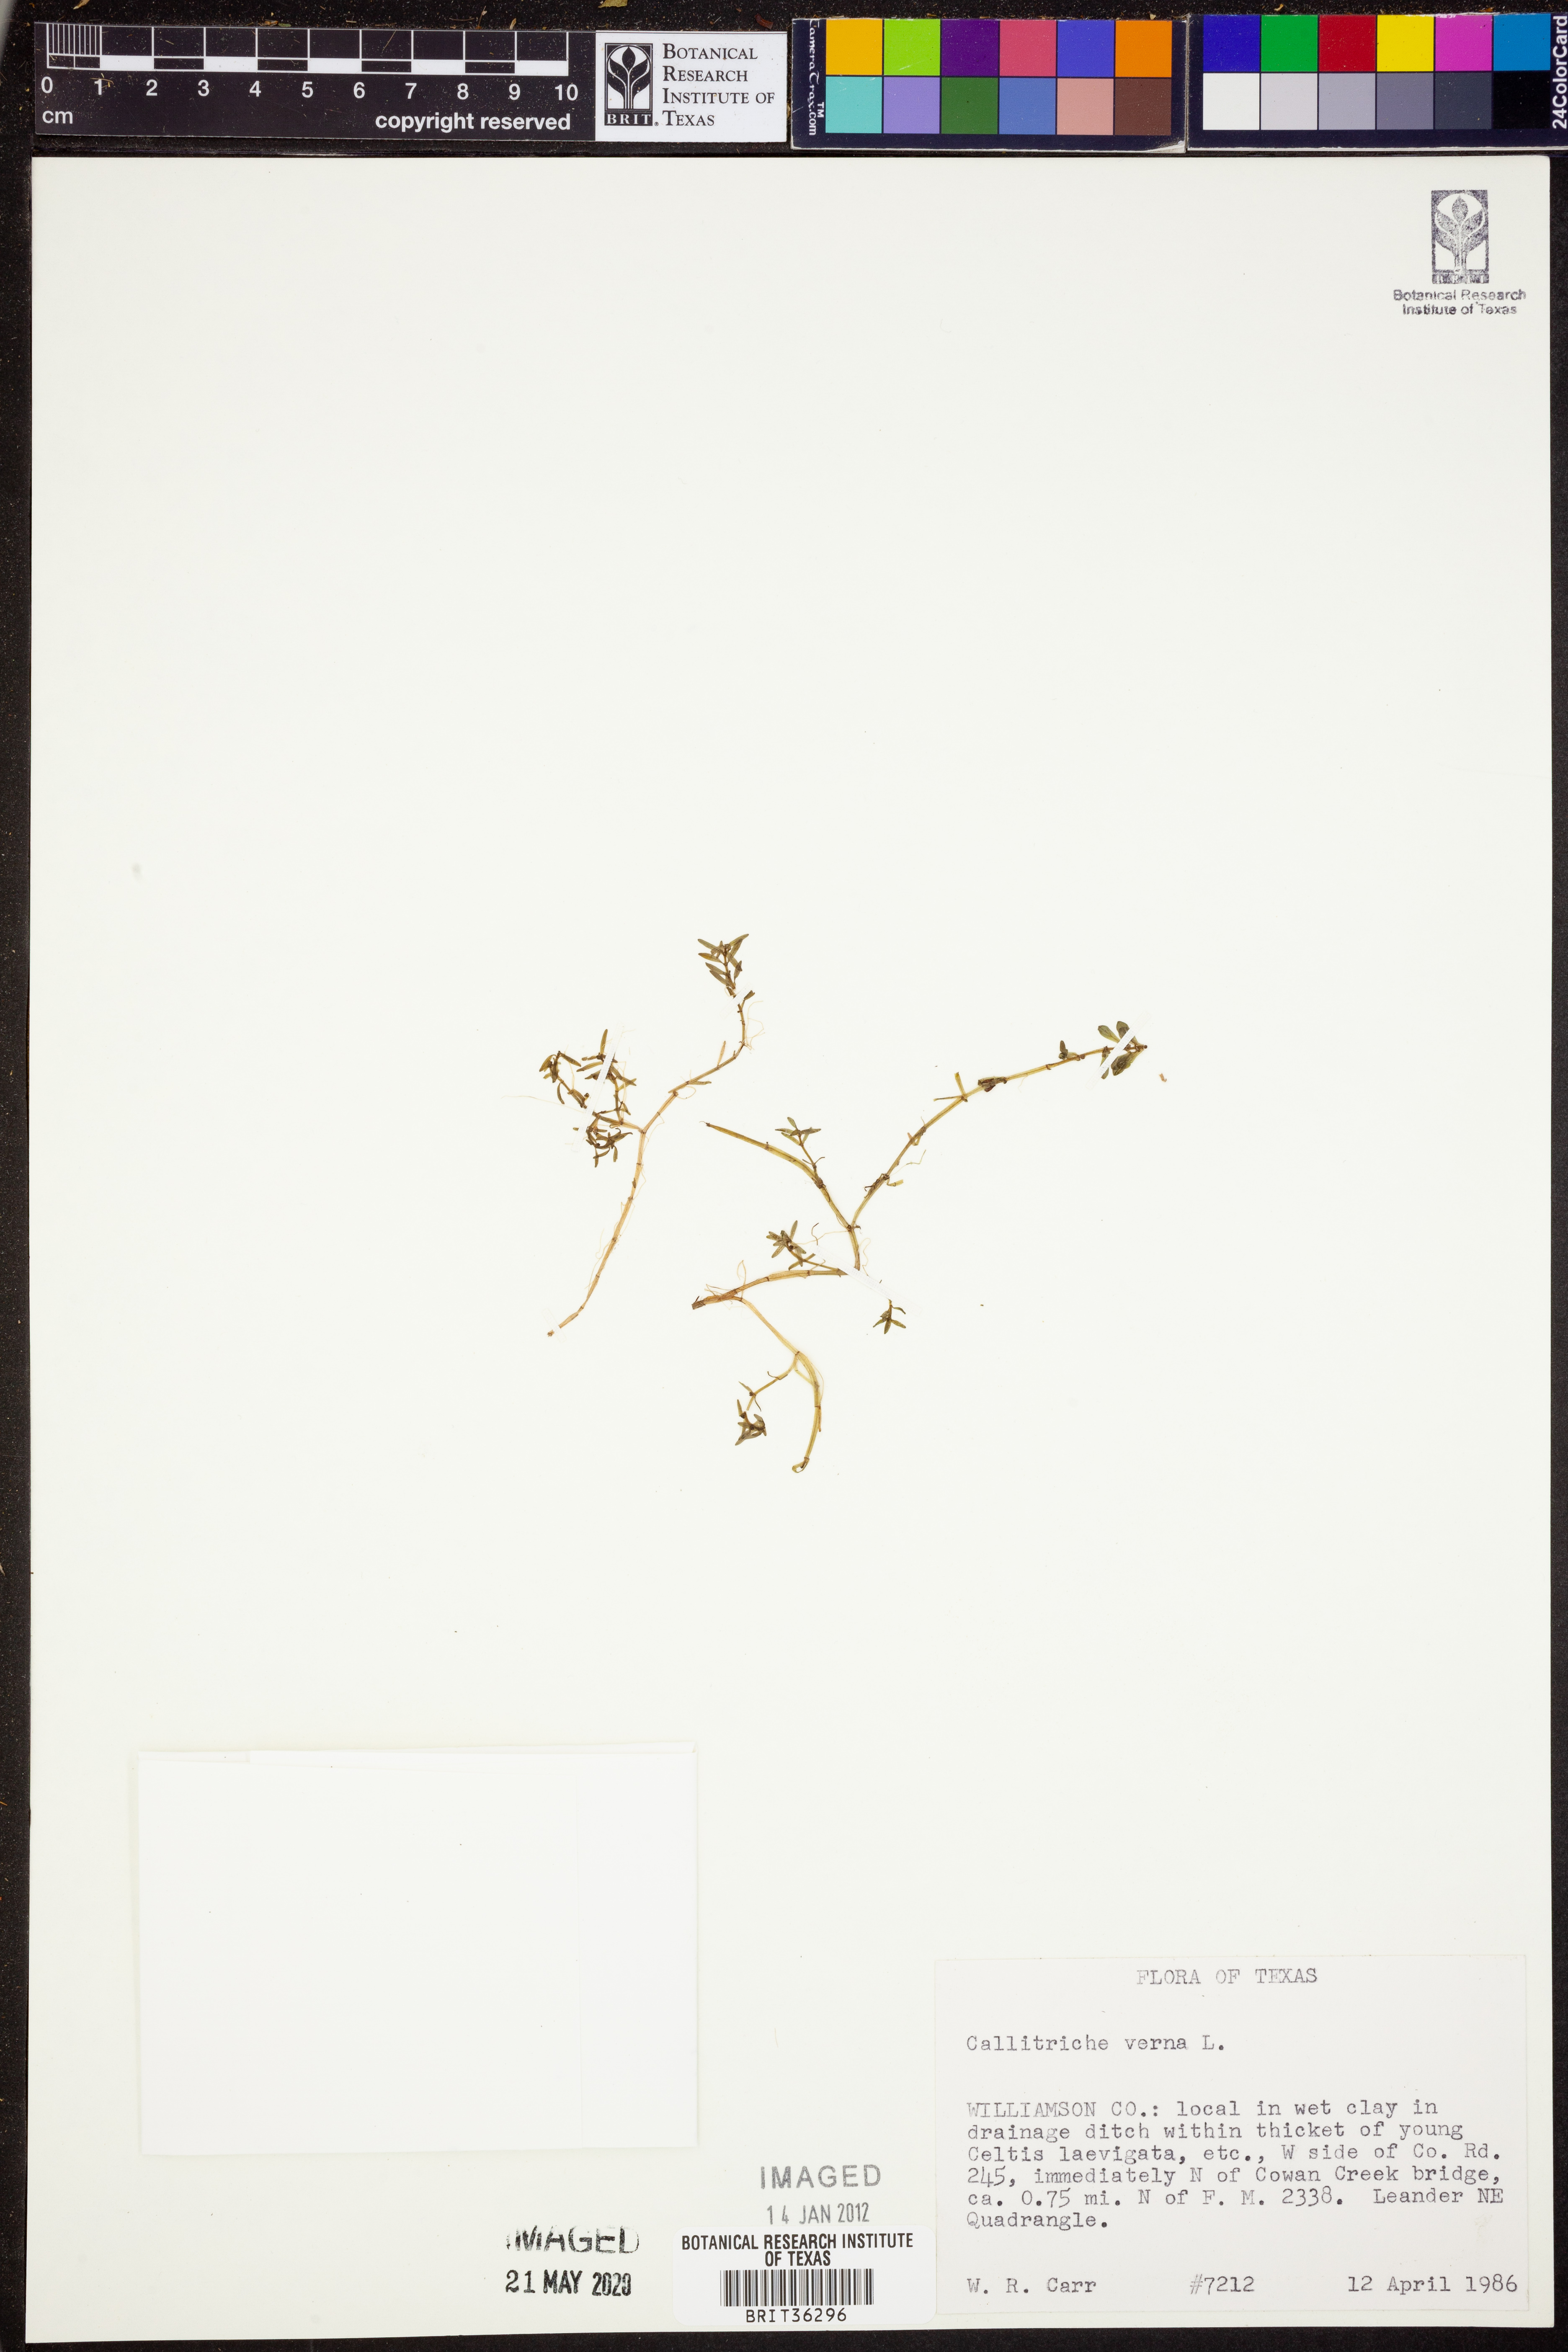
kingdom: Plantae
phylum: Tracheophyta
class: Magnoliopsida
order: Lamiales
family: Plantaginaceae
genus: Callitriche
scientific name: Callitriche palustris
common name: Spring water-starwort
